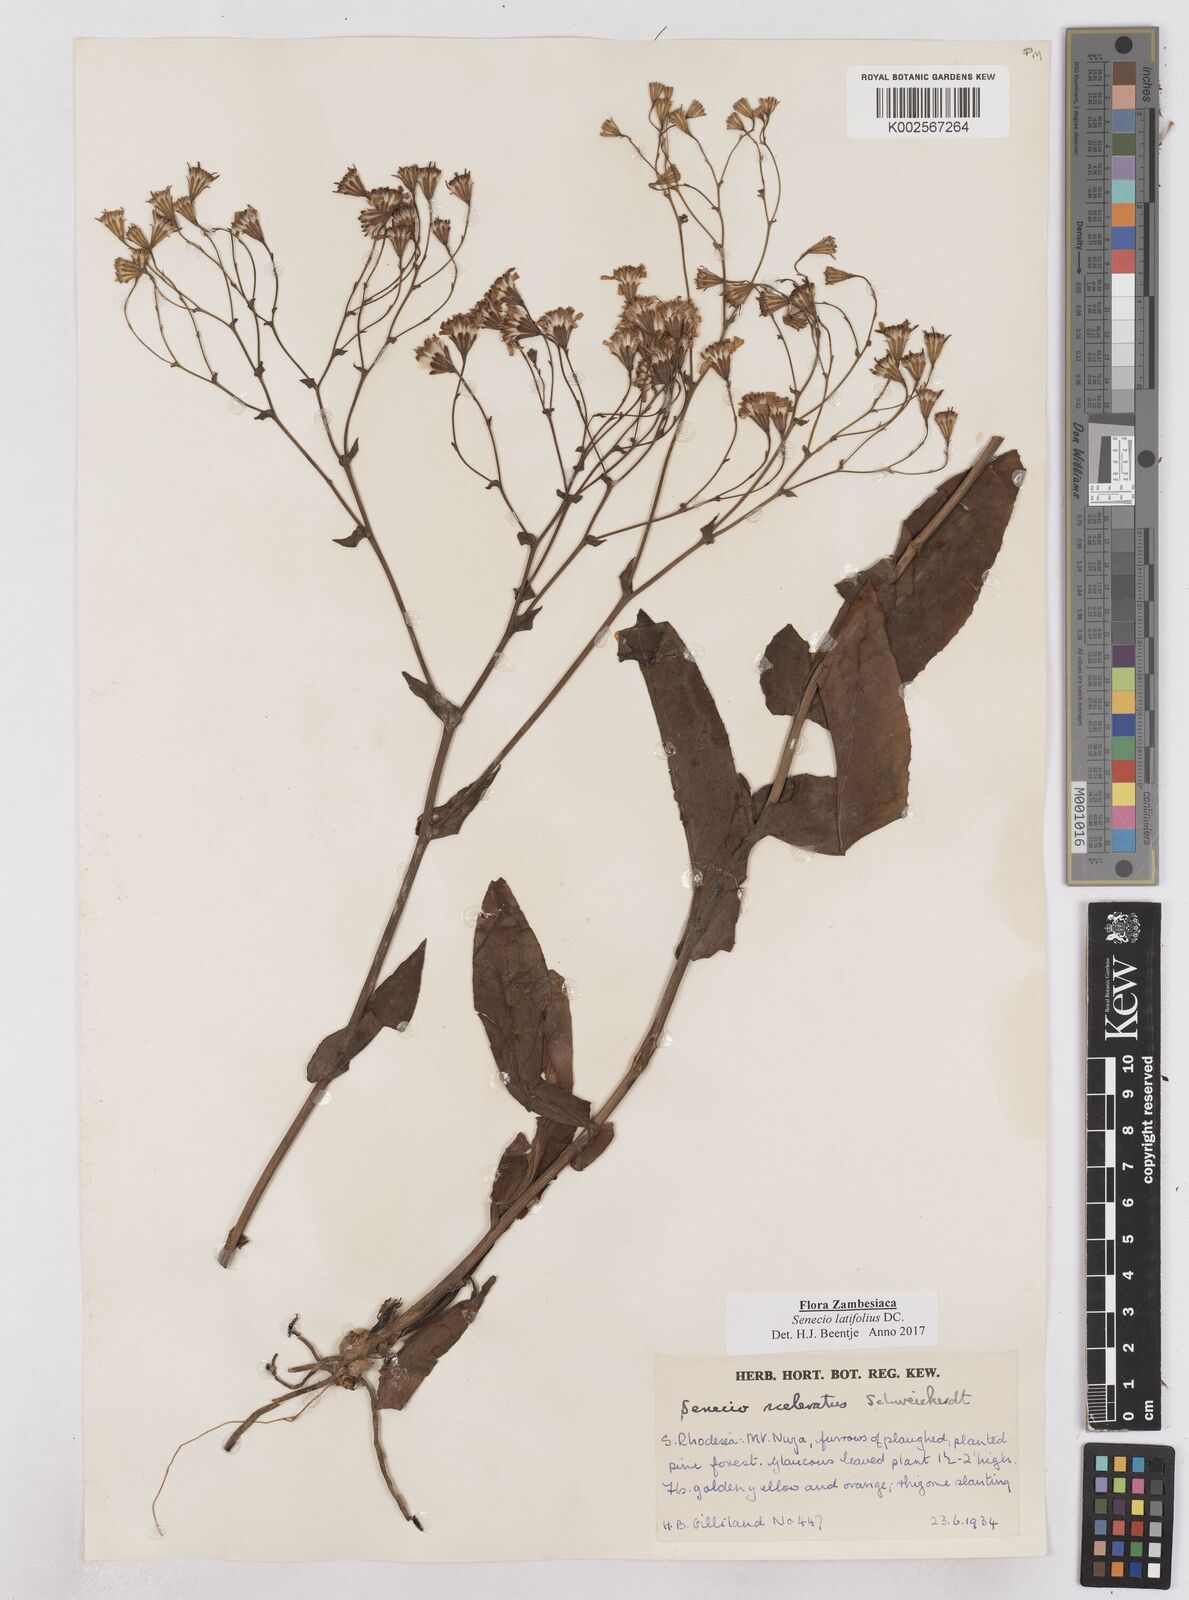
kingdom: Plantae
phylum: Tracheophyta
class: Magnoliopsida
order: Asterales
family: Asteraceae
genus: Senecio
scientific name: Senecio latifolius
